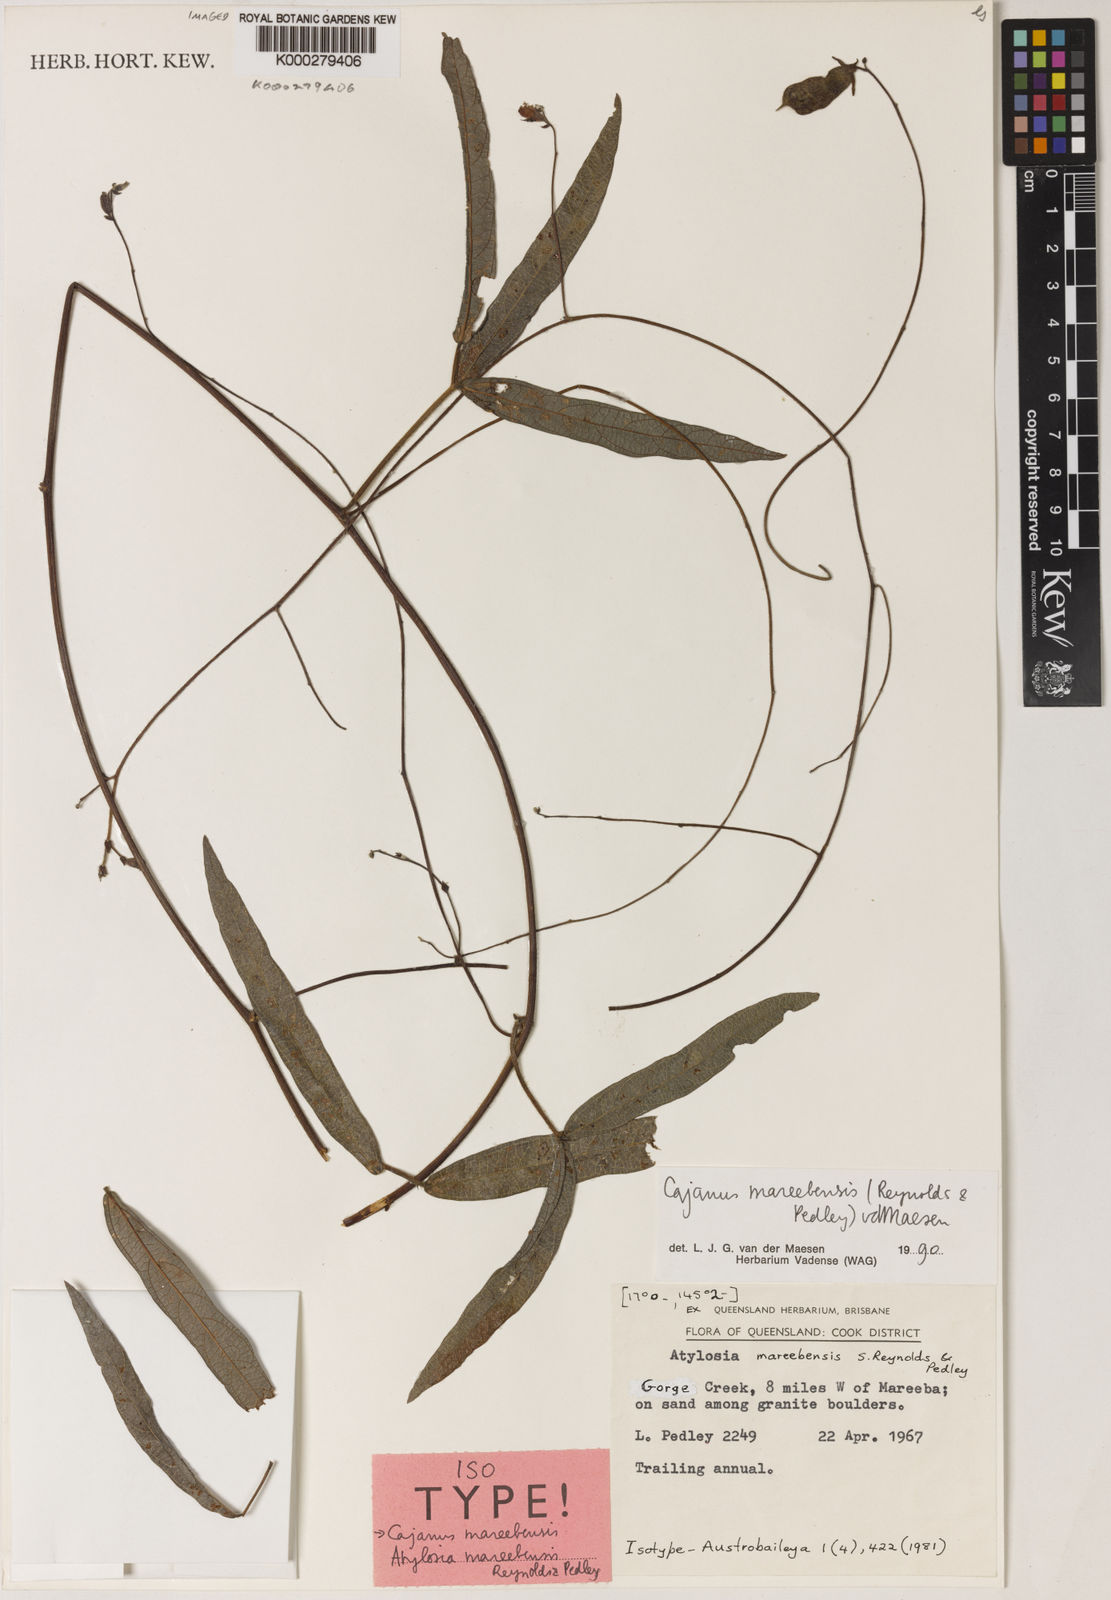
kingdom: Plantae
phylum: Tracheophyta
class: Magnoliopsida
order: Fabales
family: Fabaceae
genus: Cajanus
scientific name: Cajanus mareebensis
